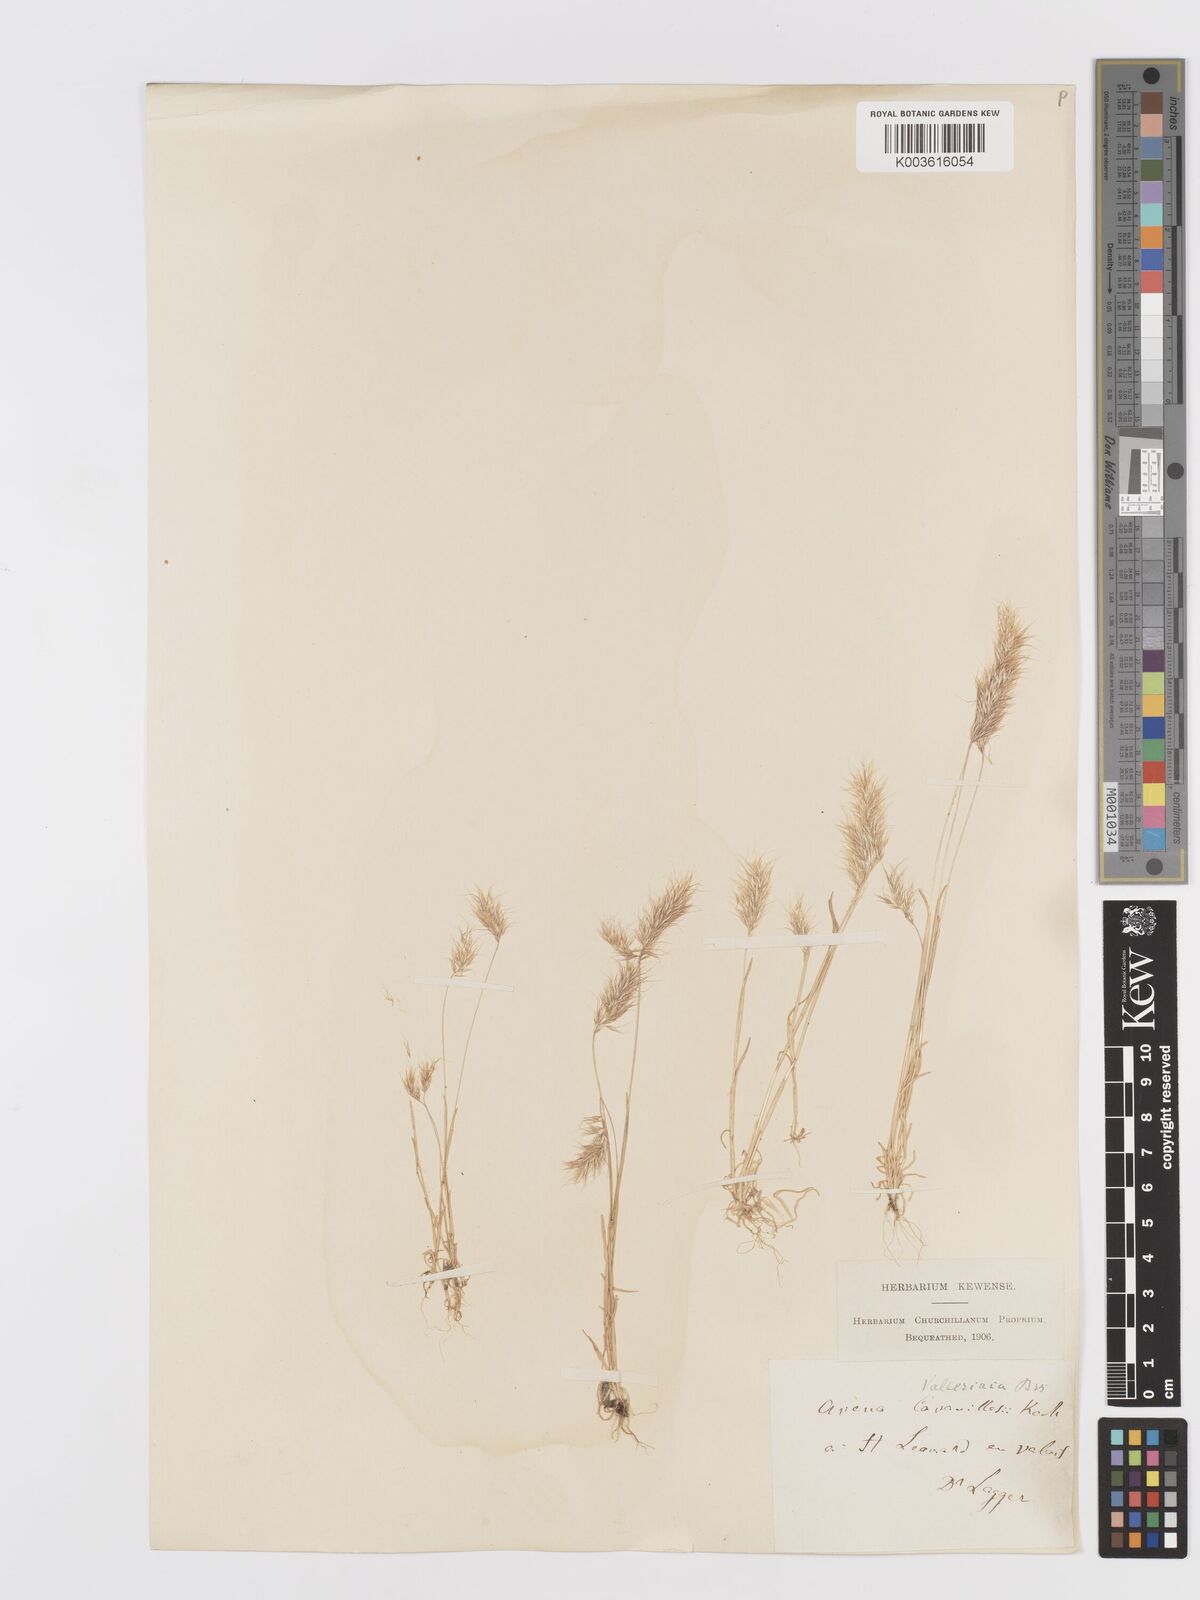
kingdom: Plantae
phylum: Tracheophyta
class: Liliopsida
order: Poales
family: Poaceae
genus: Trisetaria
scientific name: Trisetaria loeflingiana
